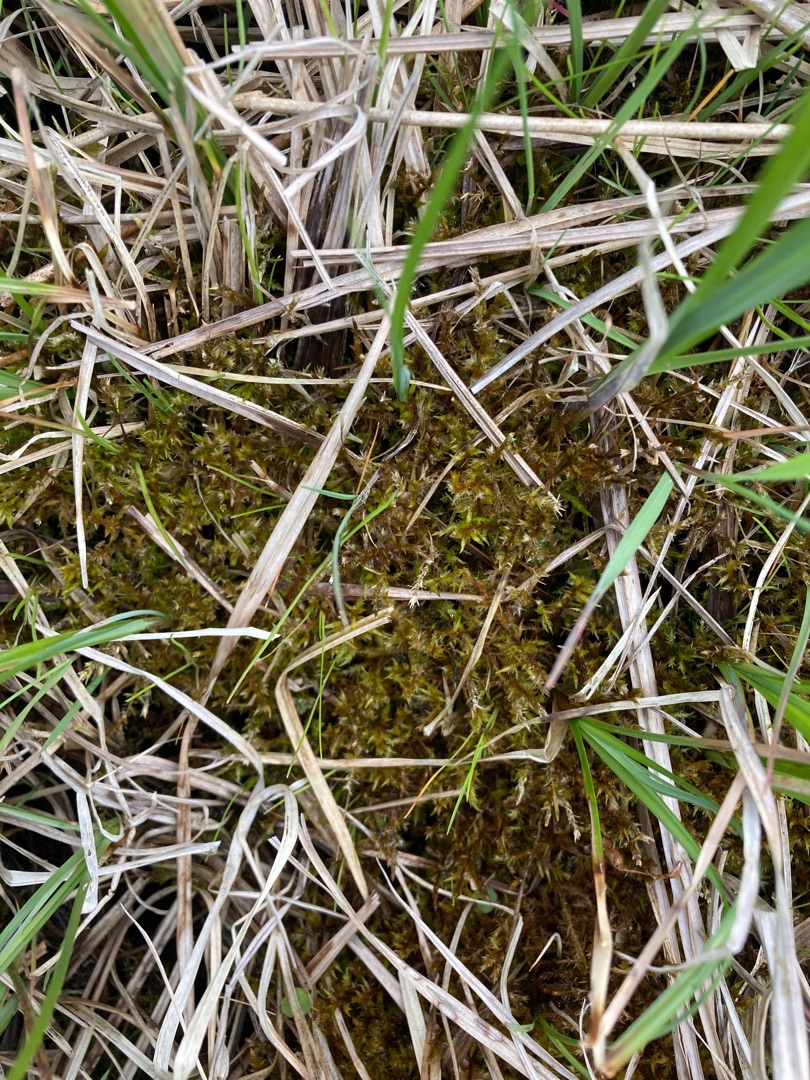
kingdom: Plantae
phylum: Bryophyta
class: Bryopsida
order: Hypnales
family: Pylaisiaceae
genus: Calliergonella
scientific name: Calliergonella cuspidata
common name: Spids spydmos
